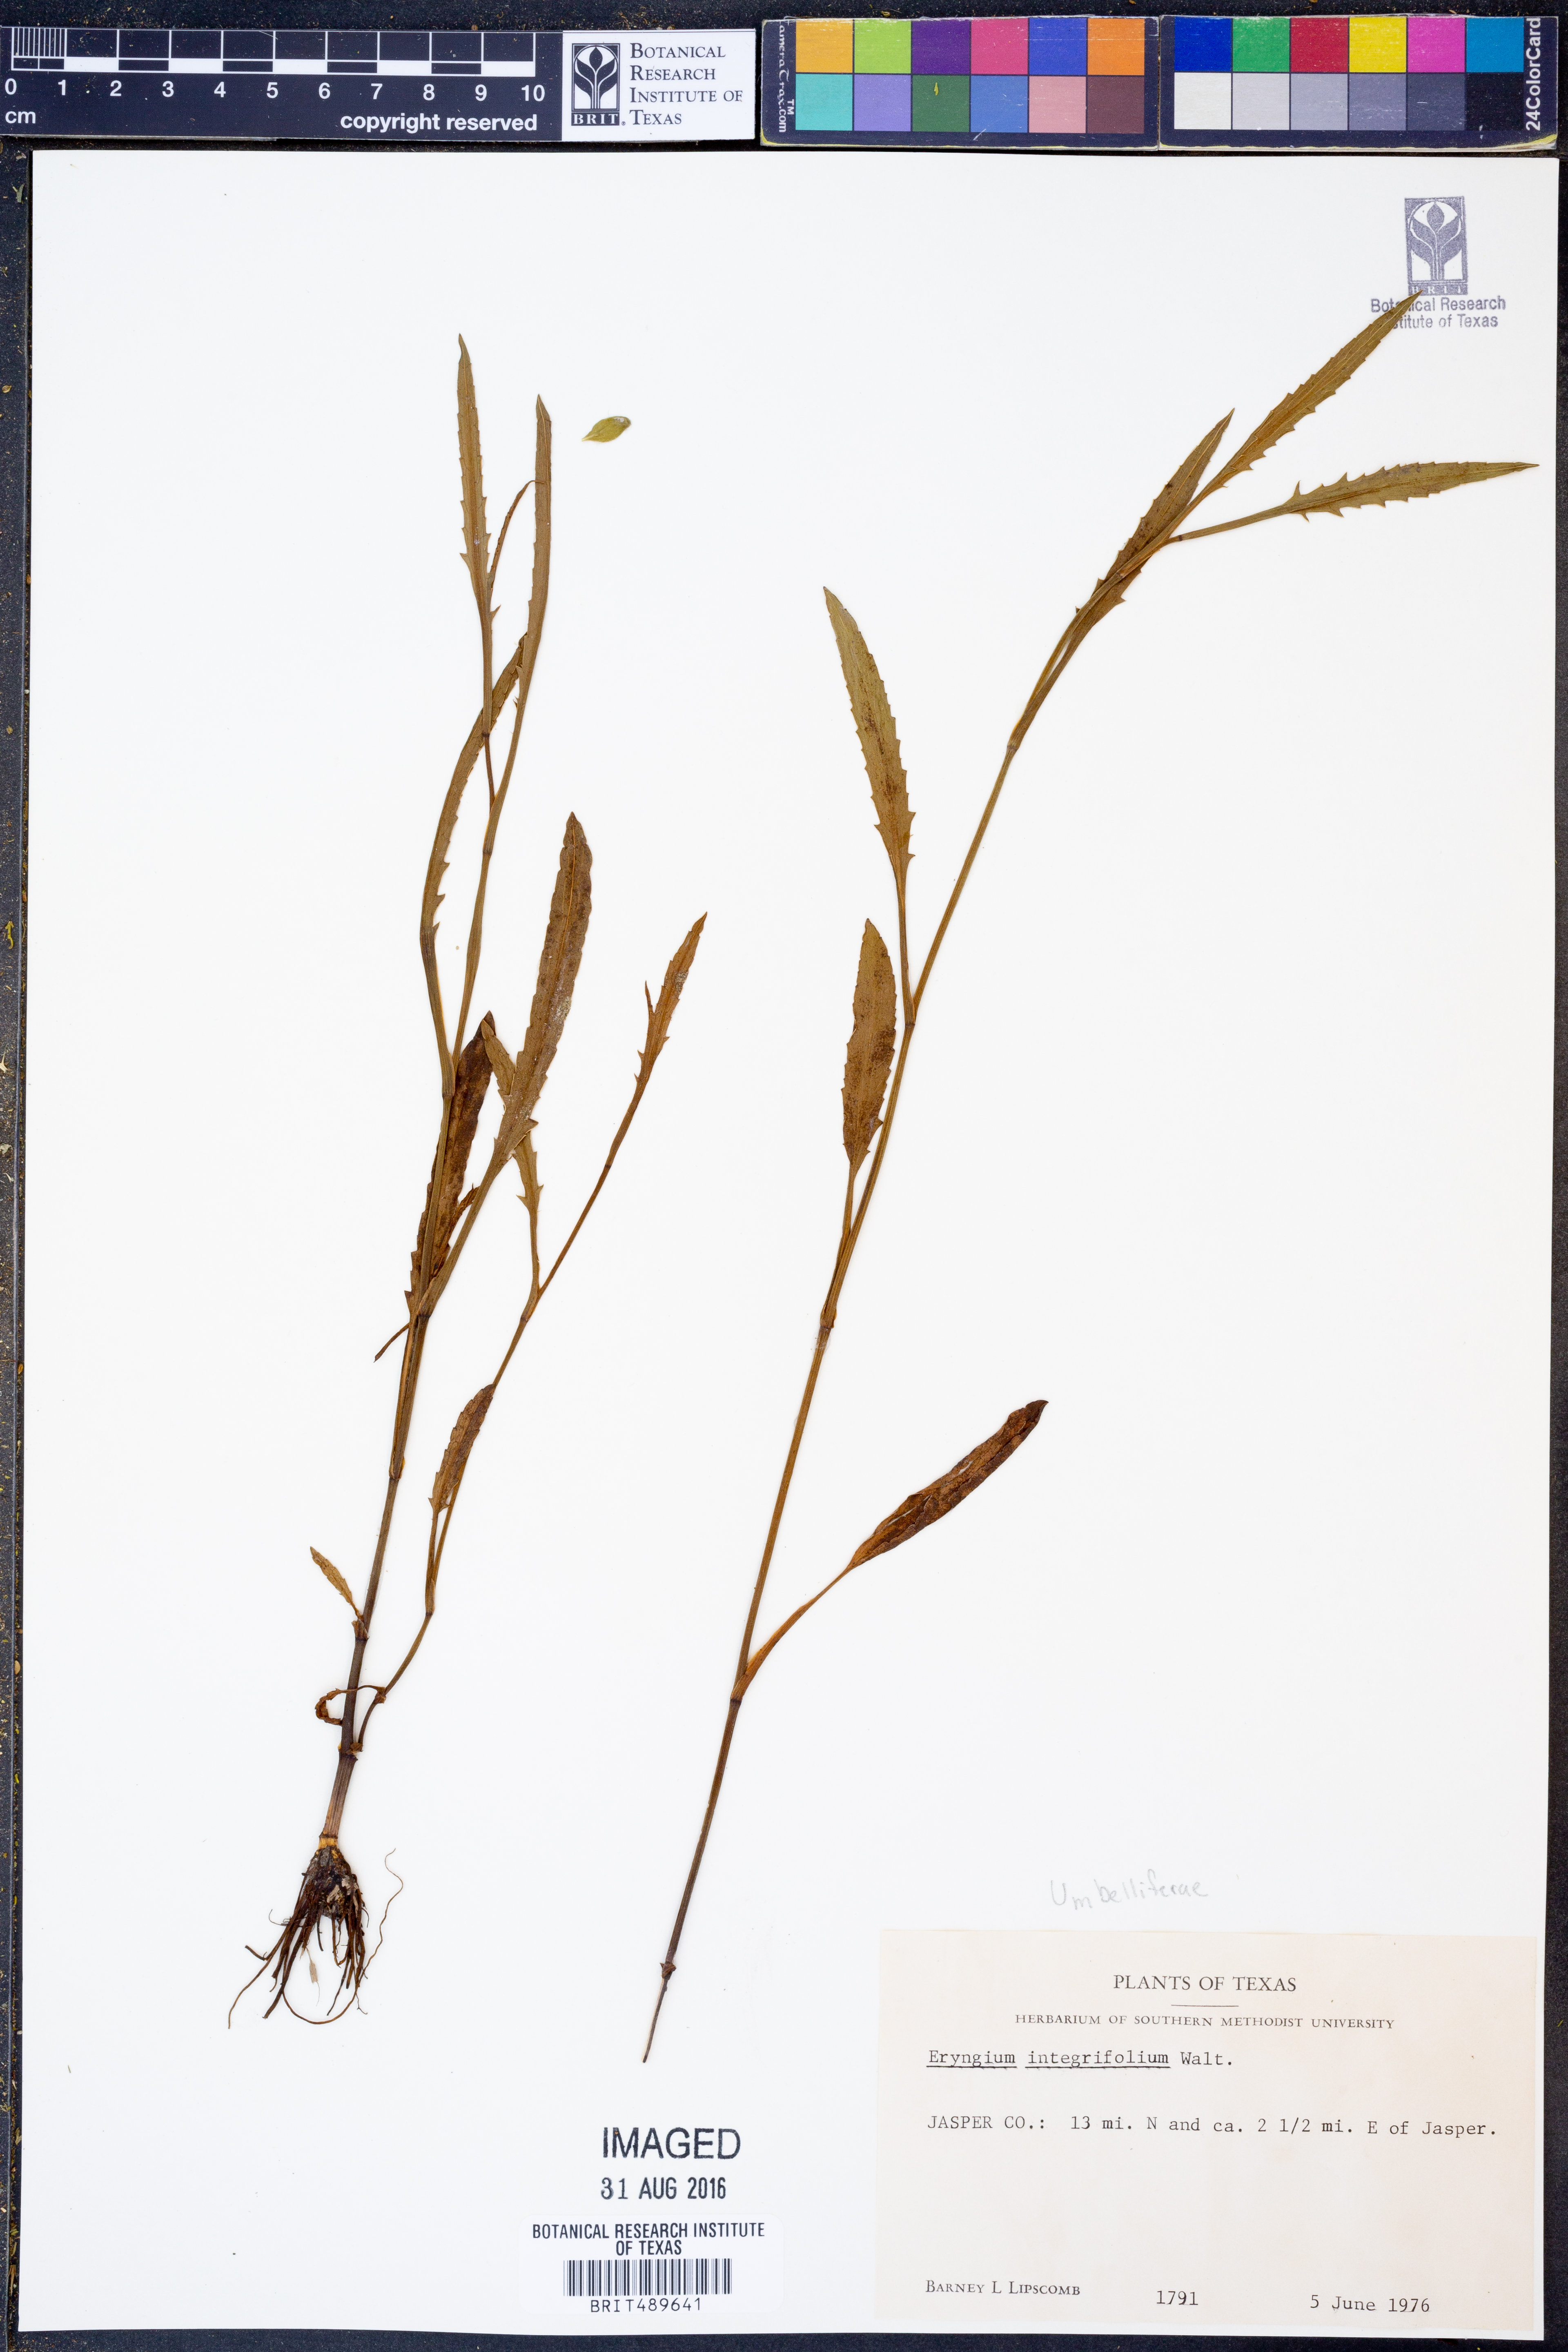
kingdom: Plantae
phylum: Tracheophyta
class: Magnoliopsida
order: Apiales
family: Apiaceae
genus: Eryngium
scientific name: Eryngium integrifolium
